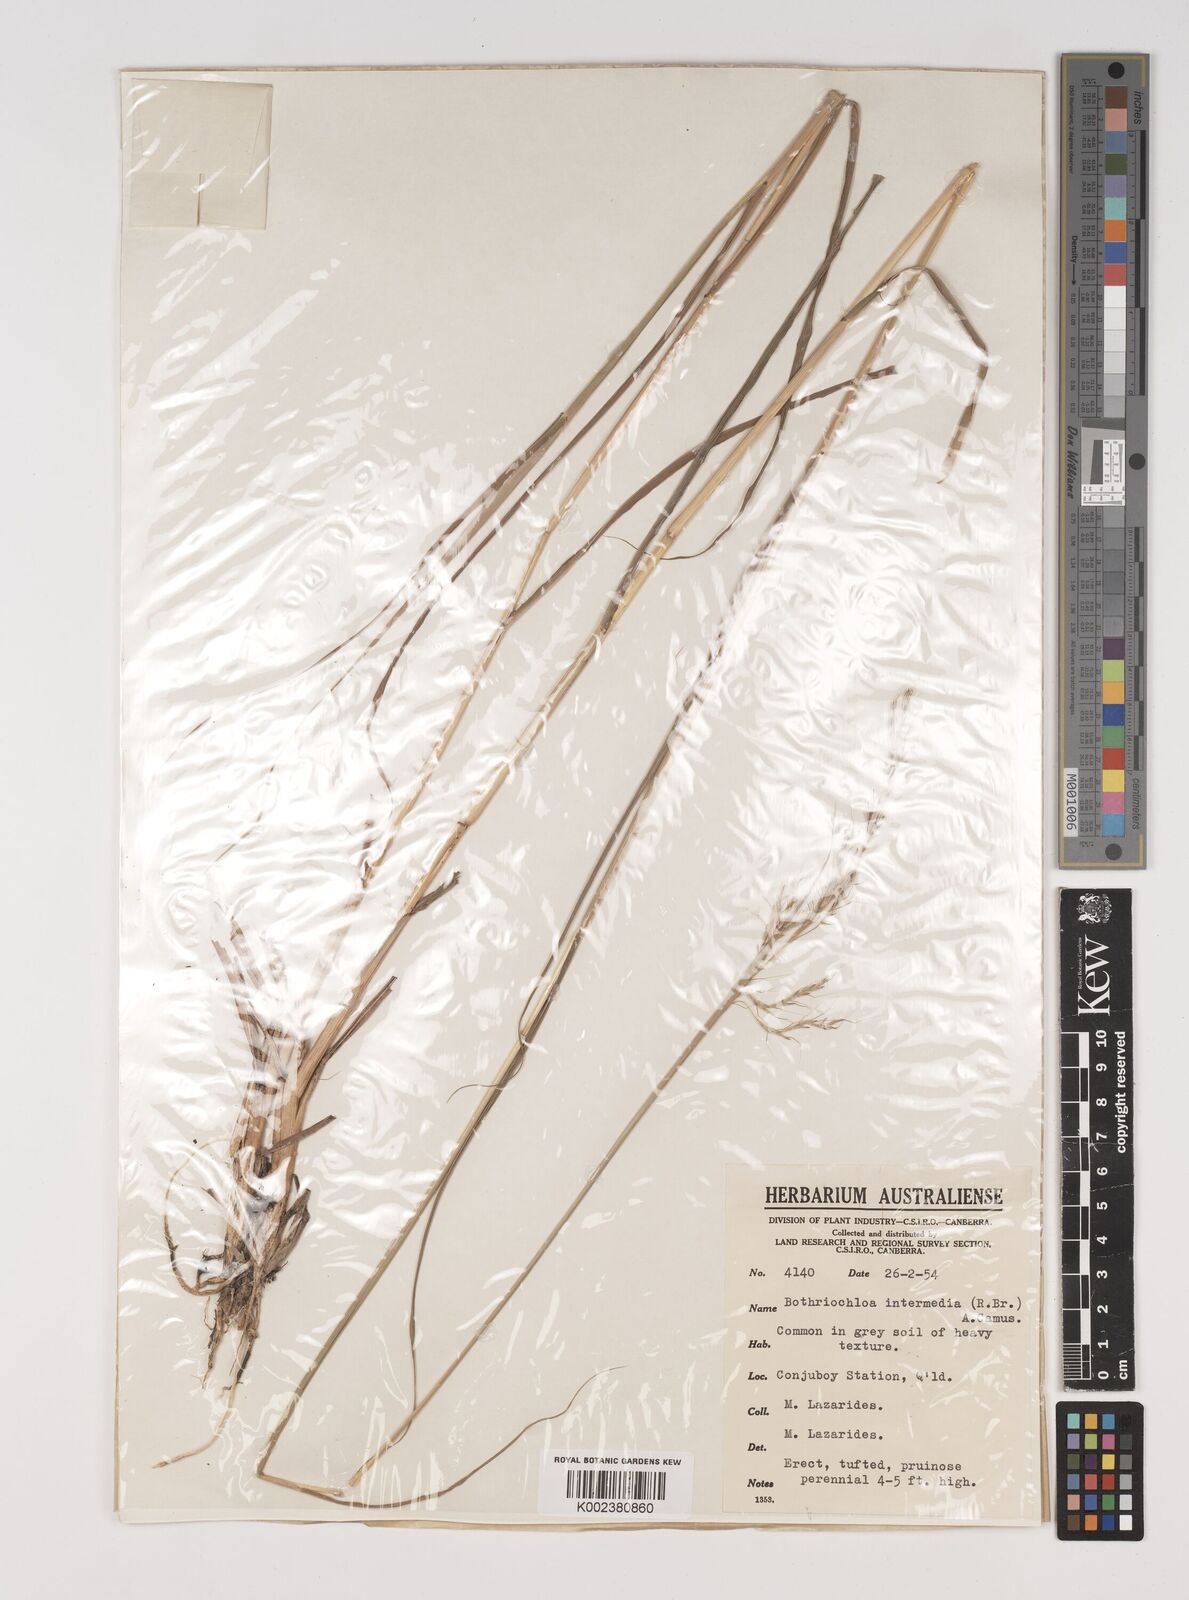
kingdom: Plantae
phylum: Tracheophyta
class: Liliopsida
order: Poales
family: Poaceae
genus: Bothriochloa
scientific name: Bothriochloa bladhii
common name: Caucasian bluestem
